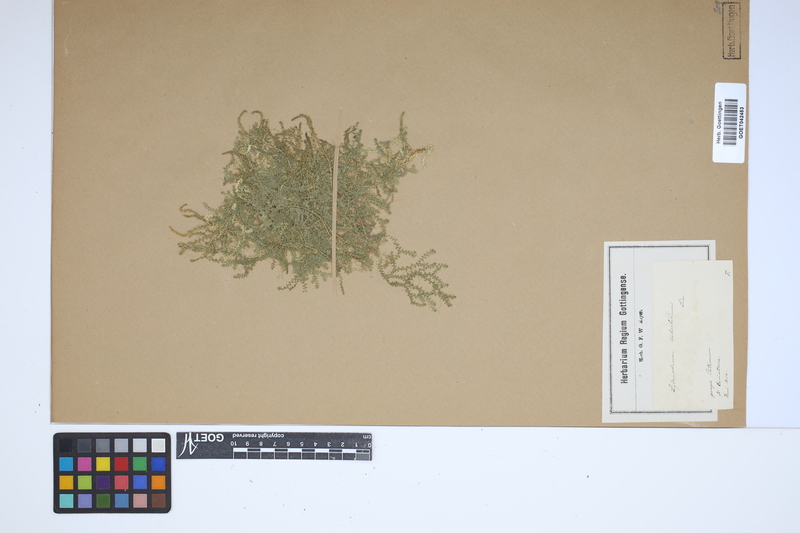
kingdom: Plantae
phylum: Tracheophyta
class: Lycopodiopsida
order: Selaginellales
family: Selaginellaceae
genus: Selaginella
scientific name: Selaginella helvetica
